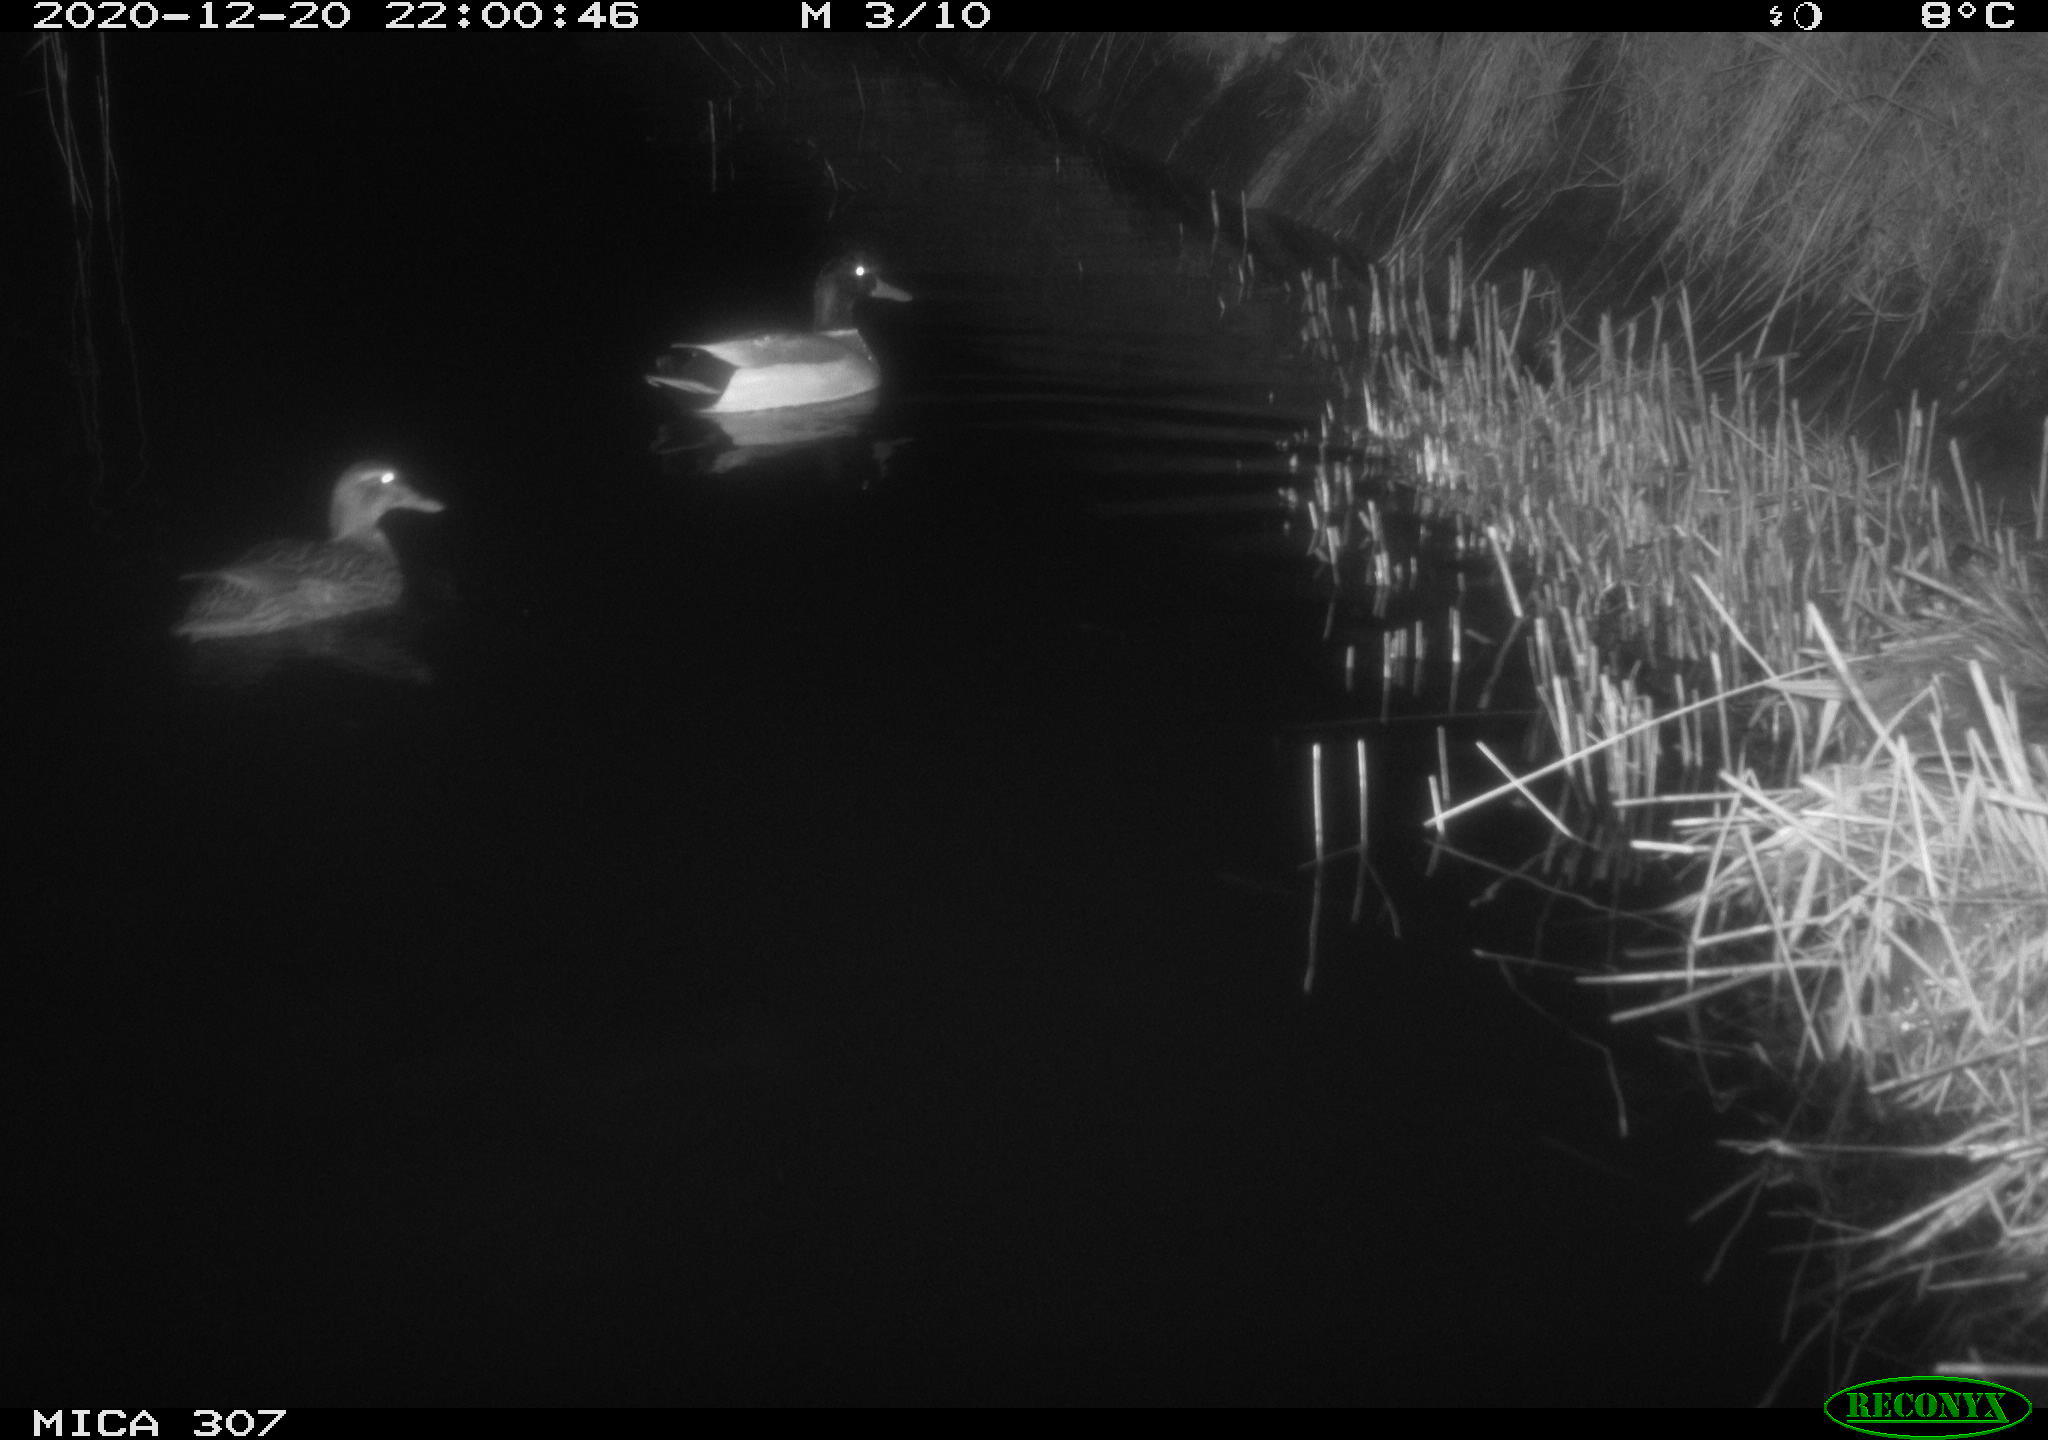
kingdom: Animalia
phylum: Chordata
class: Aves
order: Anseriformes
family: Anatidae
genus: Anas
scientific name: Anas platyrhynchos
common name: Mallard
